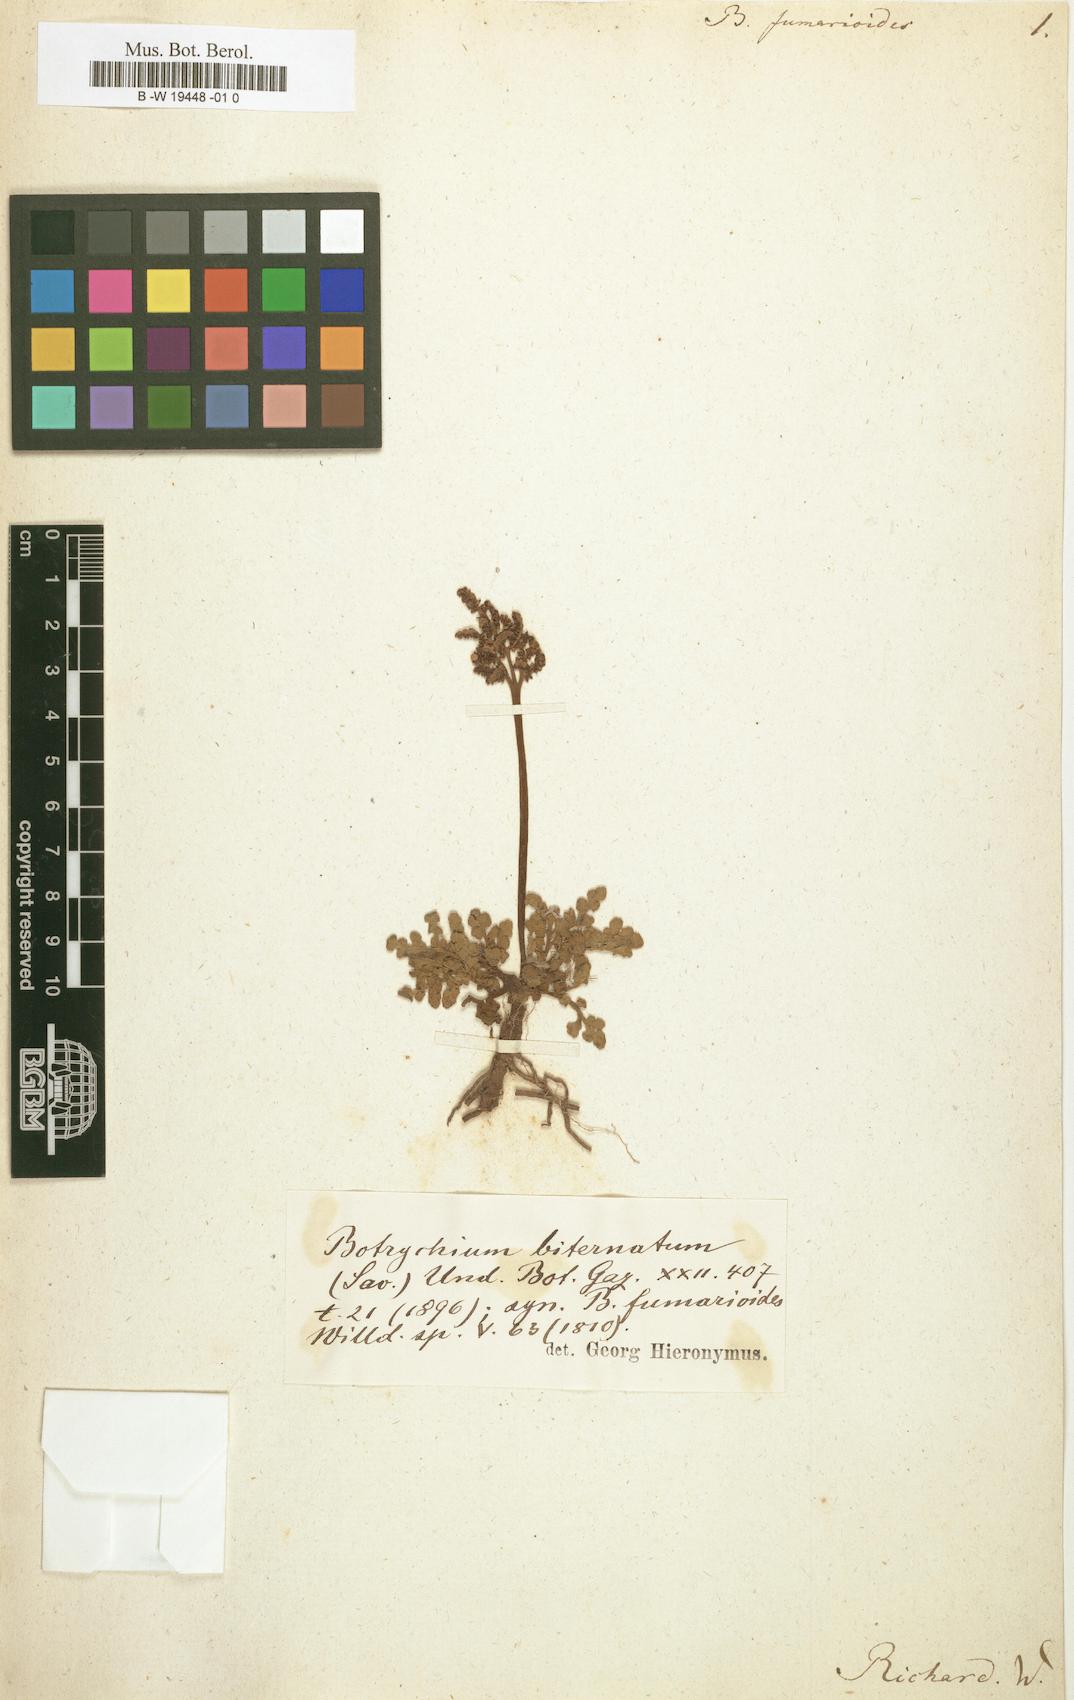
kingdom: Plantae
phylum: Tracheophyta
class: Polypodiopsida
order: Ophioglossales
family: Ophioglossaceae
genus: Sceptridium
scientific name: Sceptridium biternatum
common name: Sparse-lobed grapefern
